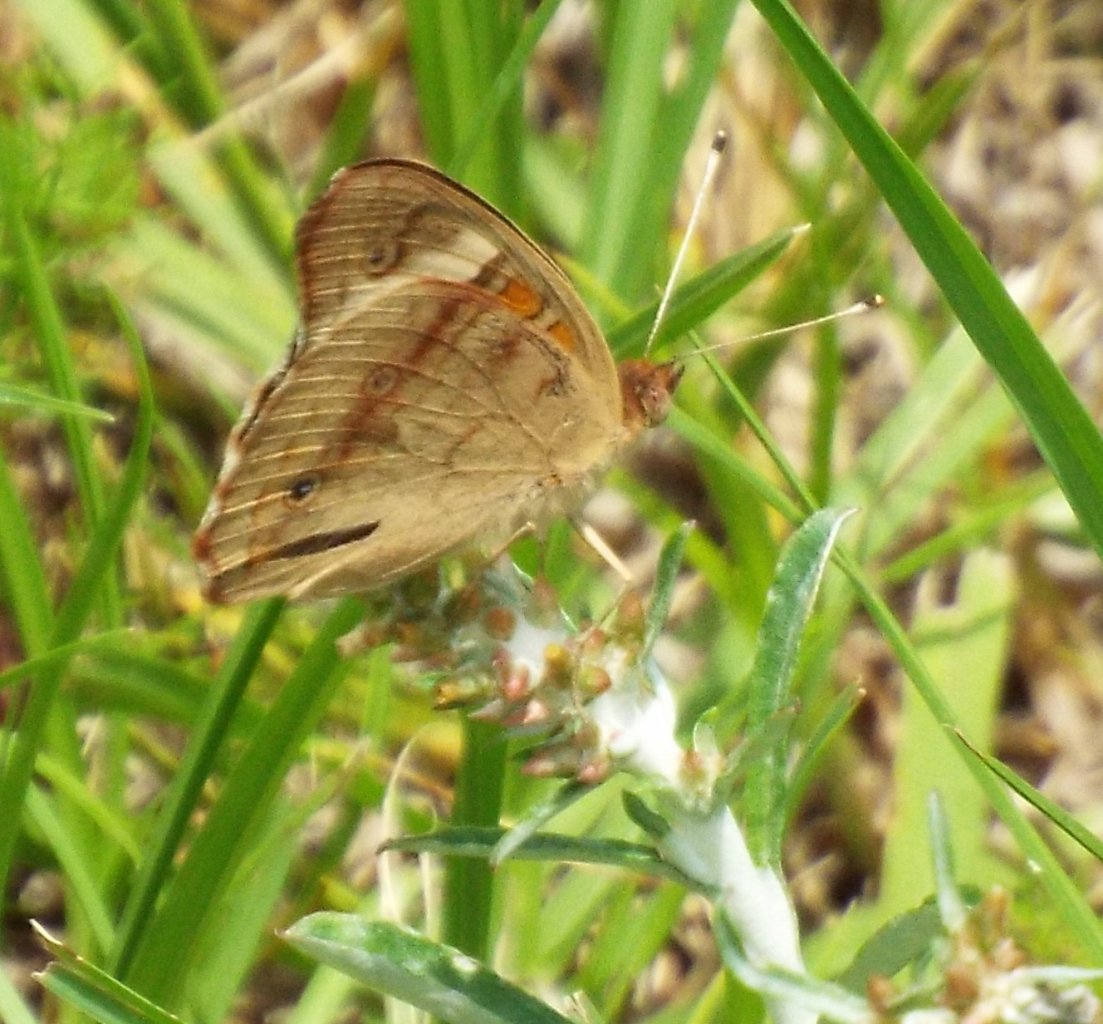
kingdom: Animalia
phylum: Arthropoda
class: Insecta
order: Lepidoptera
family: Nymphalidae
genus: Junonia
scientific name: Junonia coenia
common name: Common Buckeye
